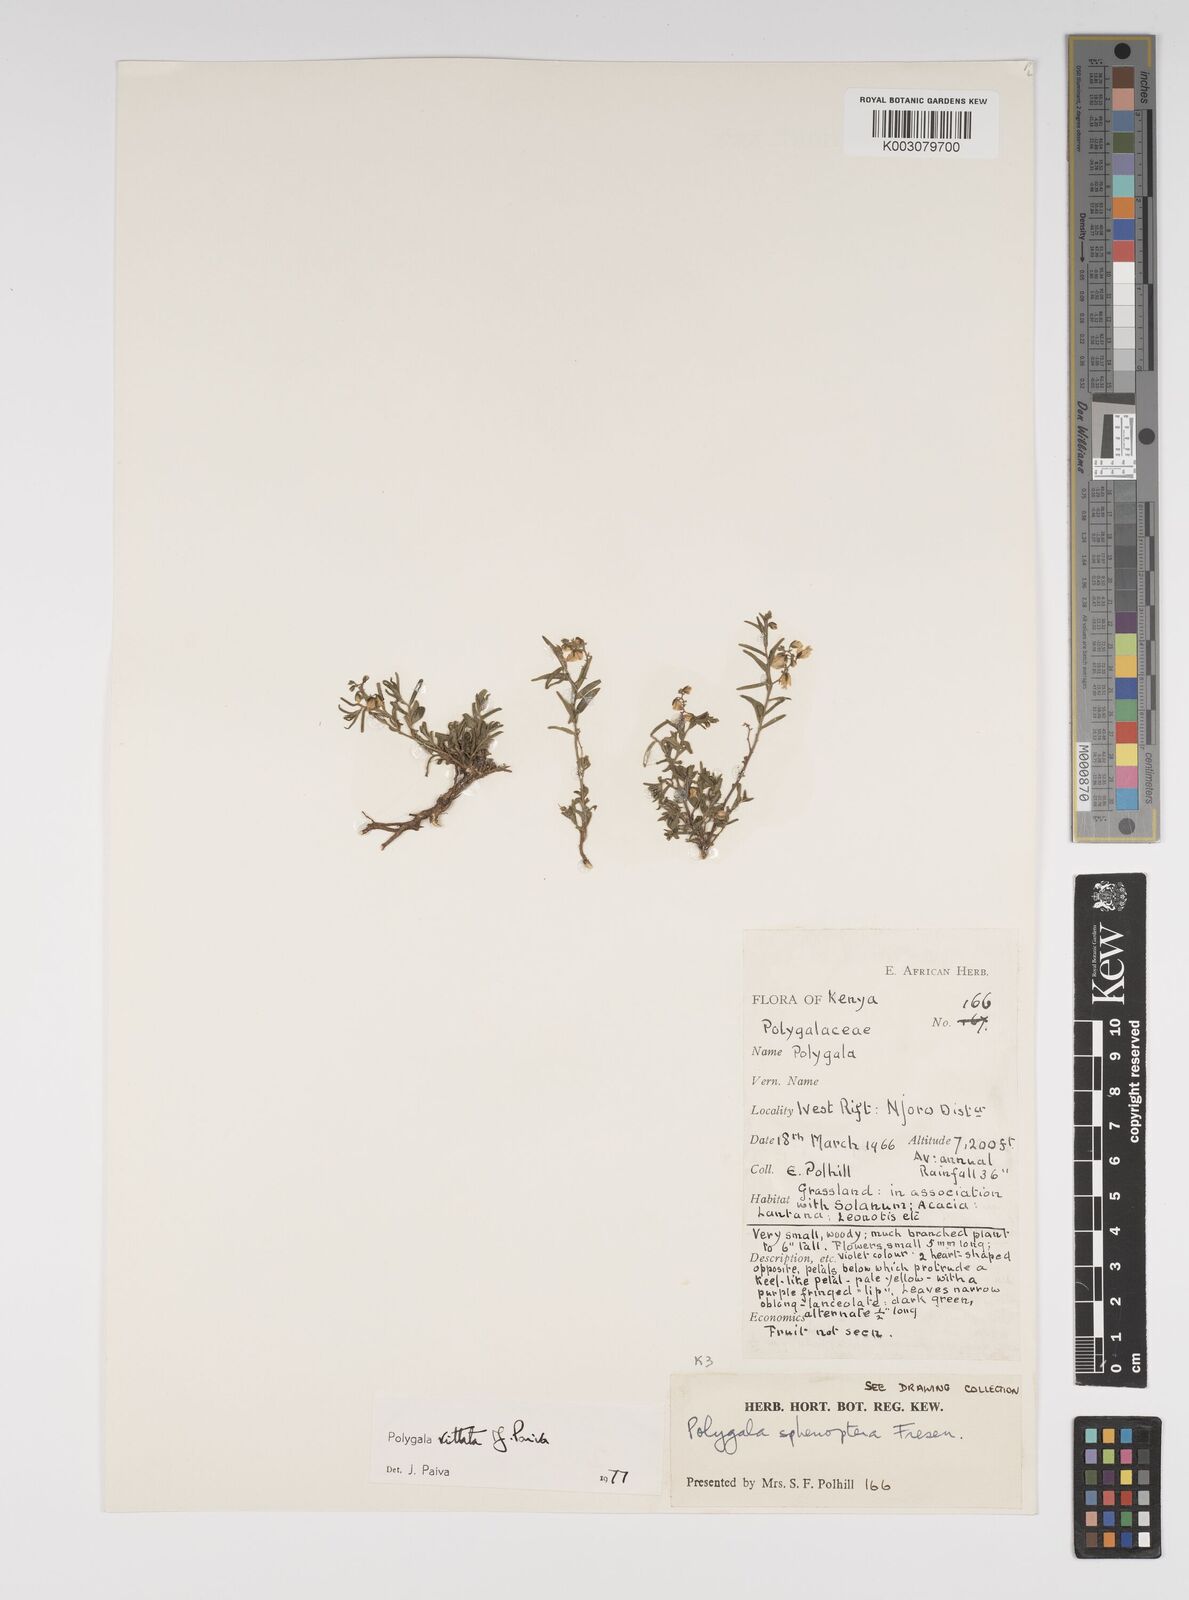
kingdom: Plantae
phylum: Tracheophyta
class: Magnoliopsida
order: Fabales
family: Polygalaceae
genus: Polygala
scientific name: Polygala vittata
